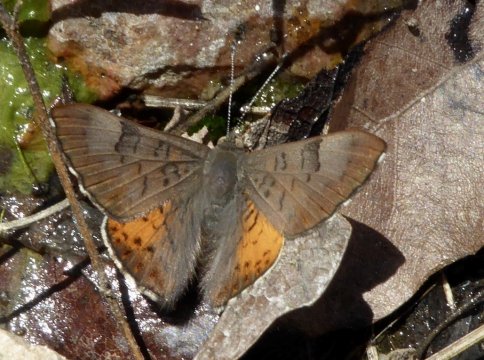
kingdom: Animalia
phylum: Arthropoda
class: Insecta
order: Lepidoptera
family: Lycaenidae
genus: Emesis
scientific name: Emesis zela
